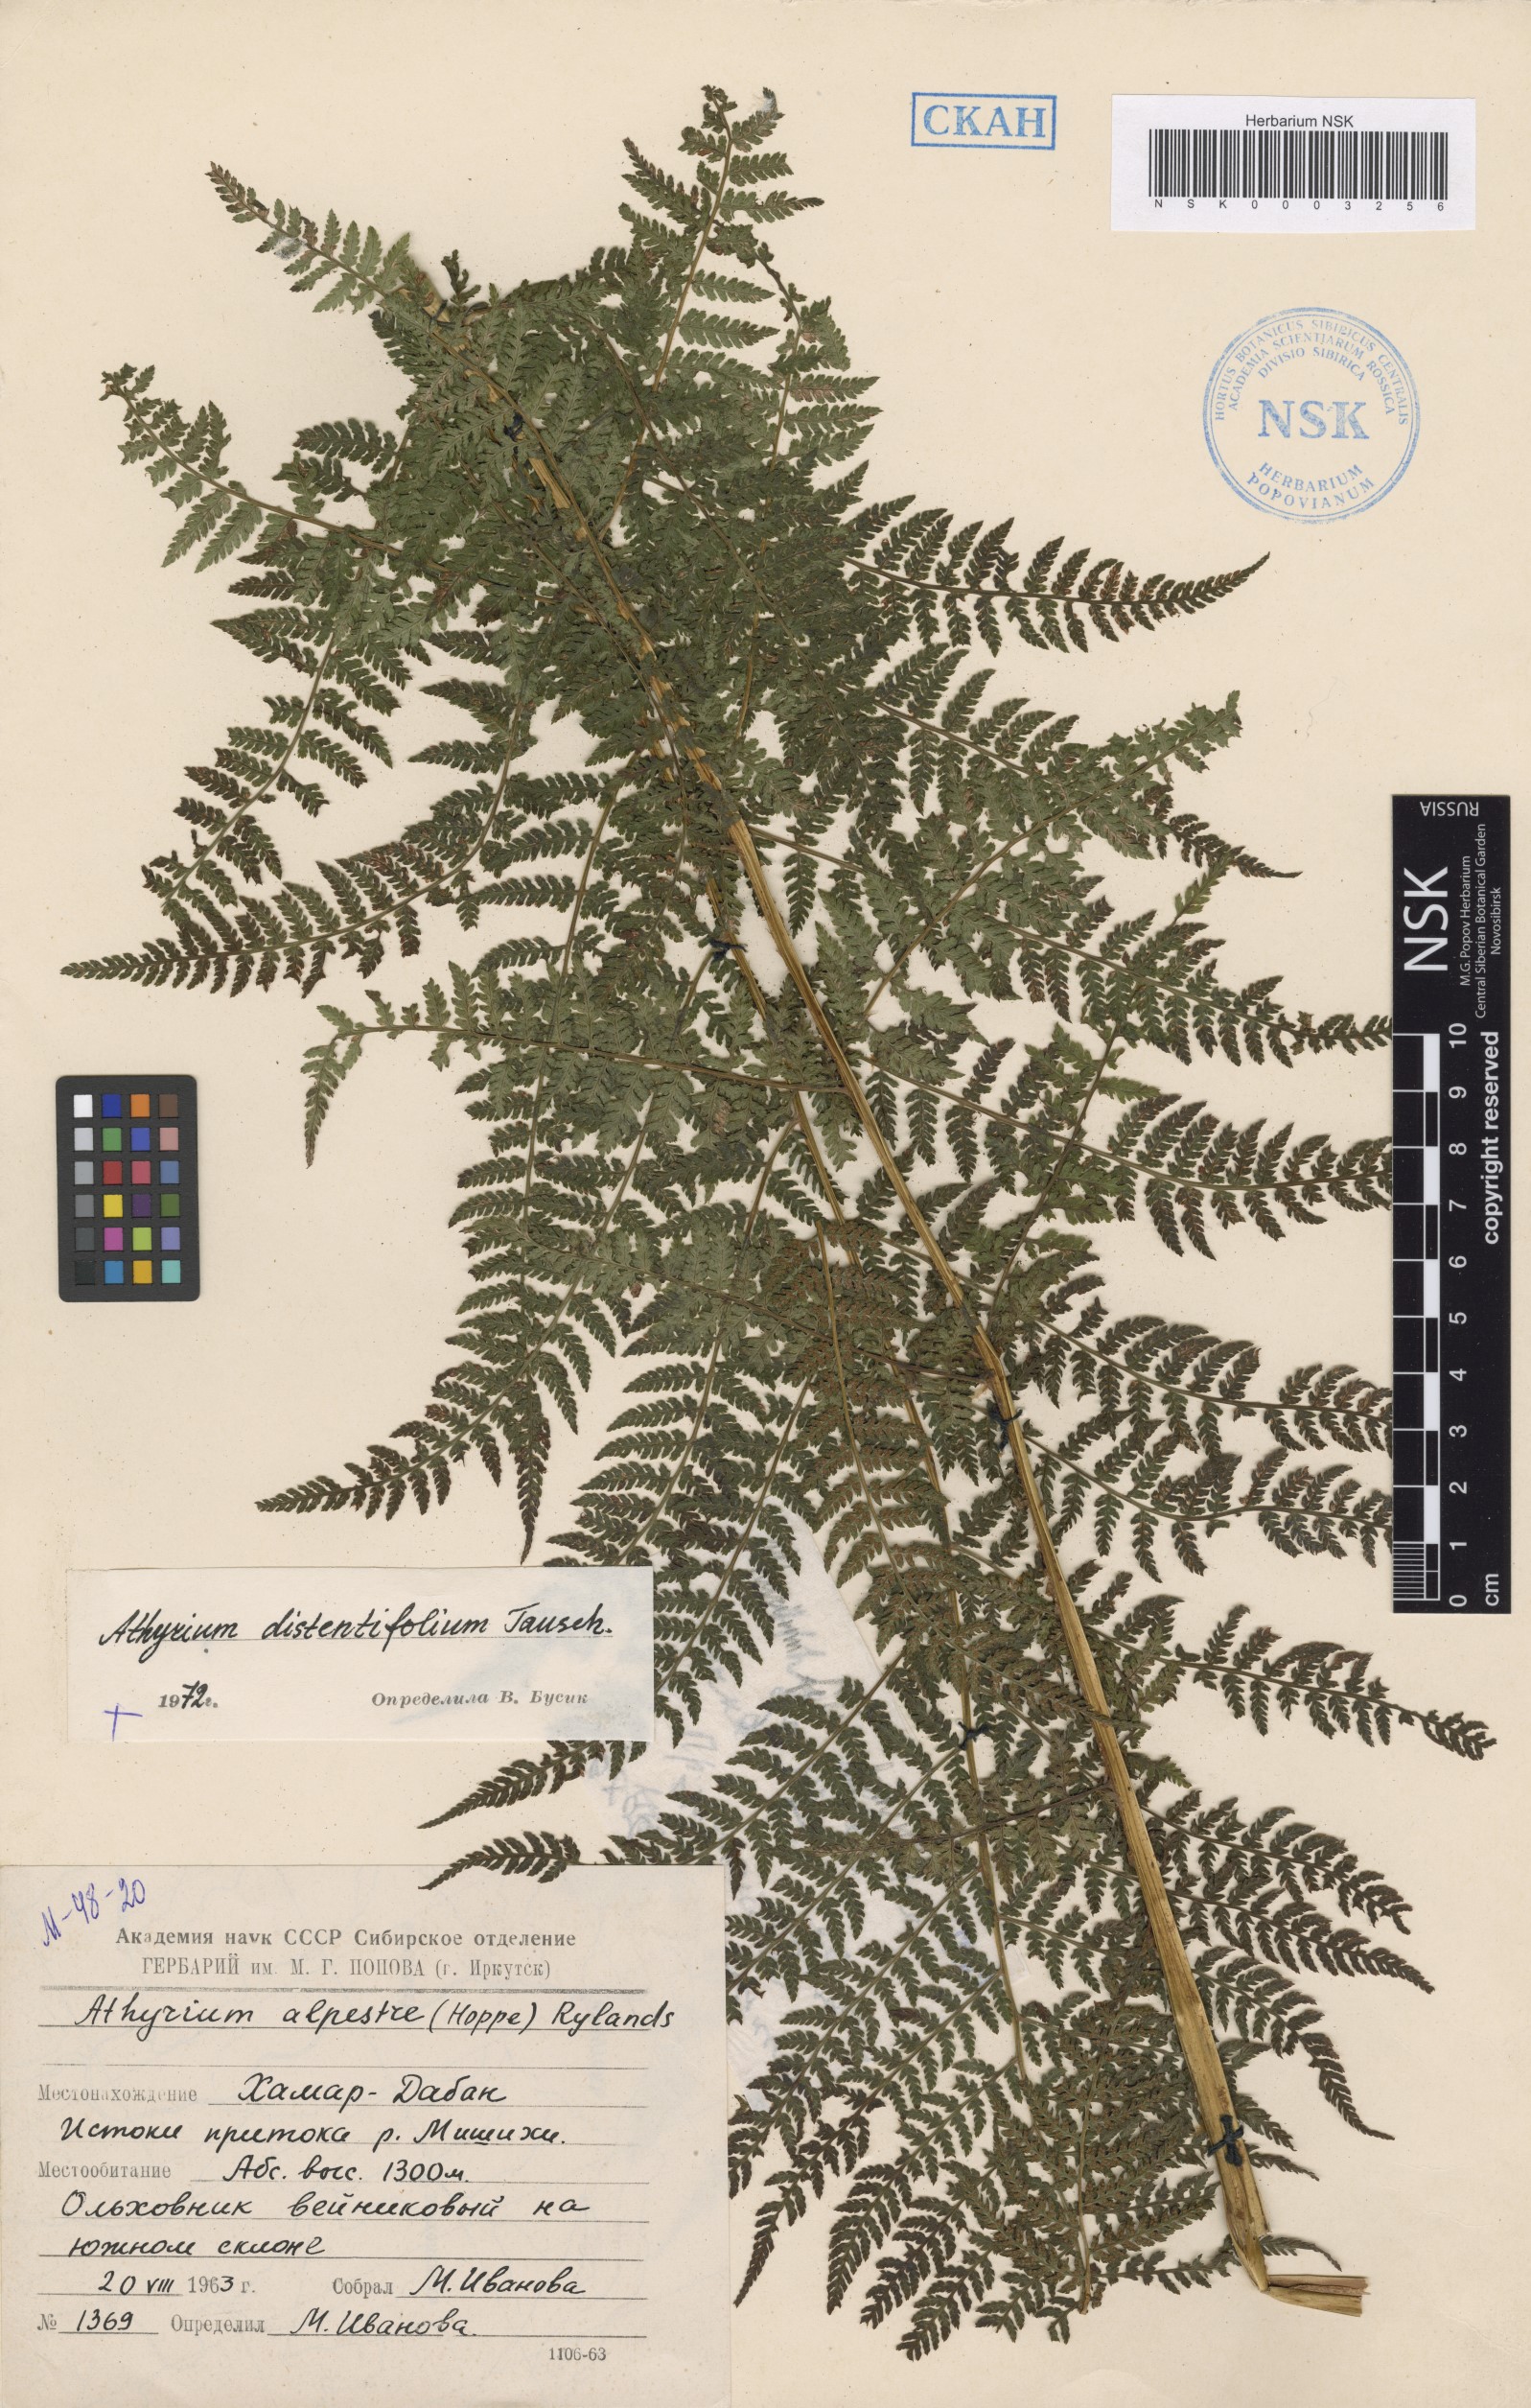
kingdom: Plantae
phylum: Tracheophyta
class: Polypodiopsida
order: Polypodiales
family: Athyriaceae
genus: Pseudathyrium
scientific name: Pseudathyrium alpestre
